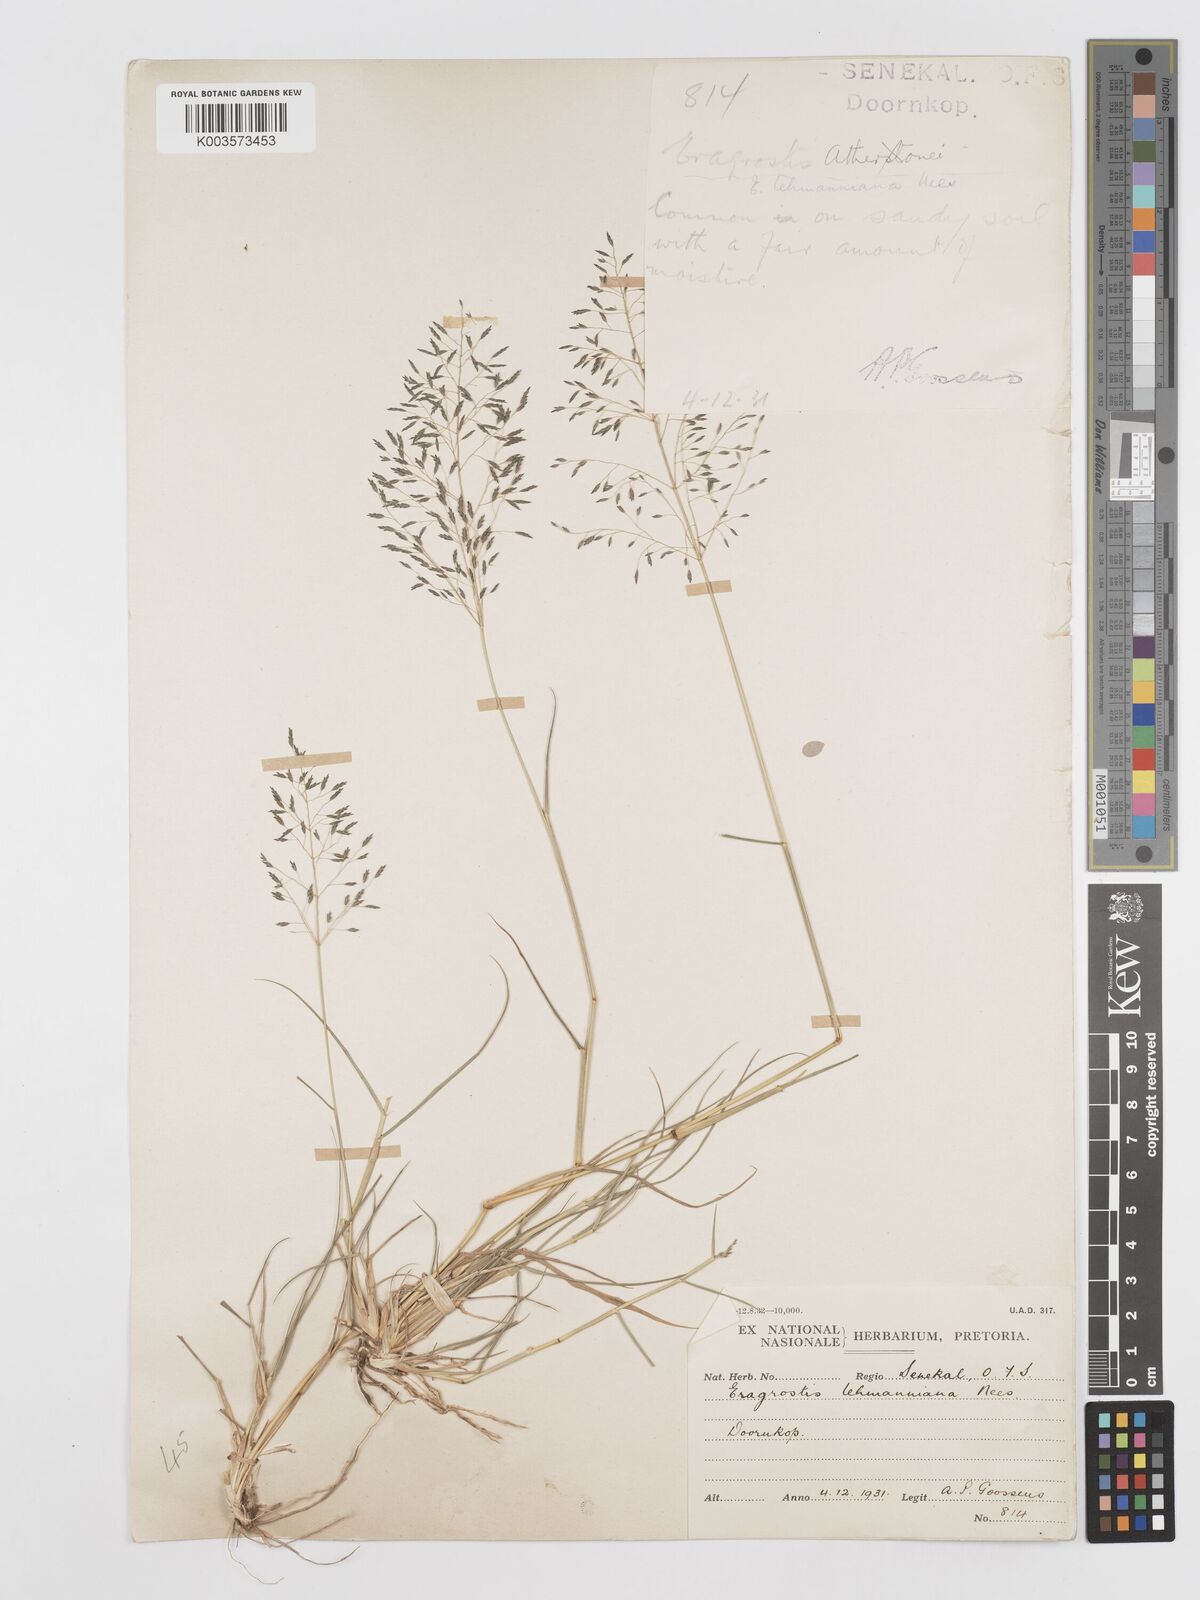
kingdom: Plantae
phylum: Tracheophyta
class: Liliopsida
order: Poales
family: Poaceae
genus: Eragrostis
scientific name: Eragrostis lehmanniana
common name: Lehmann lovegrass
